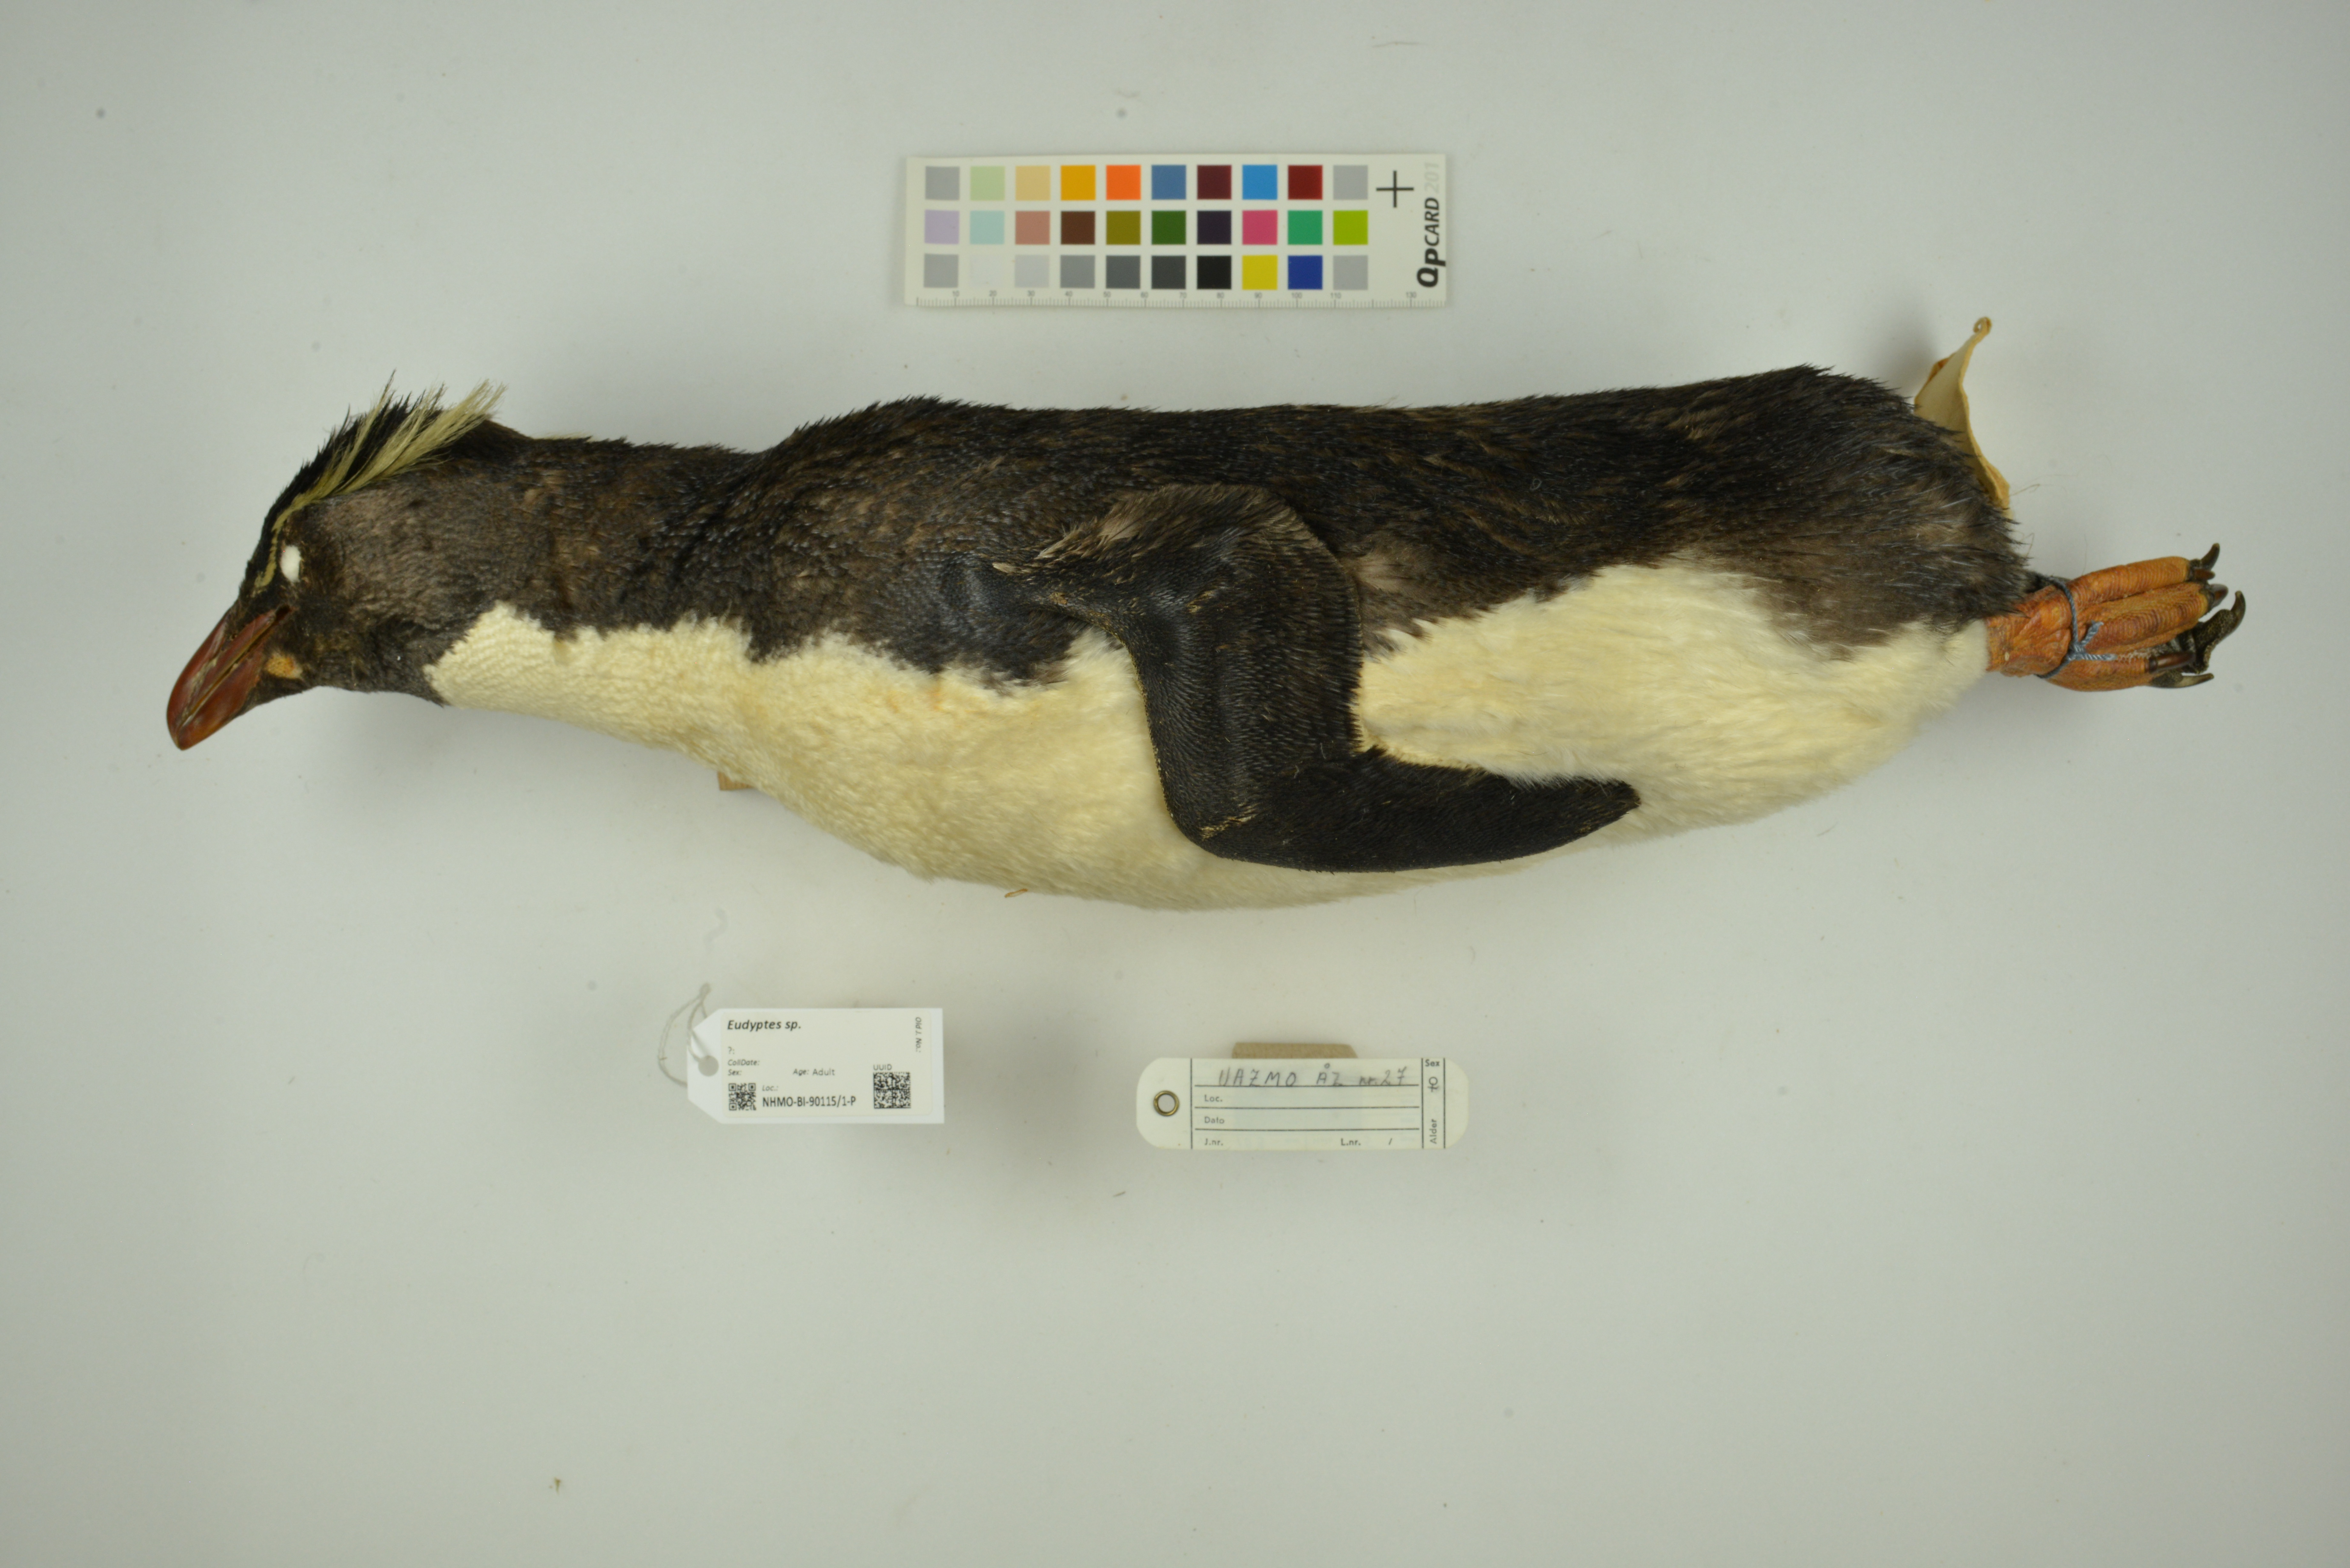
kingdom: Animalia
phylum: Chordata
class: Aves
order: Sphenisciformes
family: Spheniscidae
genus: Eudyptes
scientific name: Eudyptes
